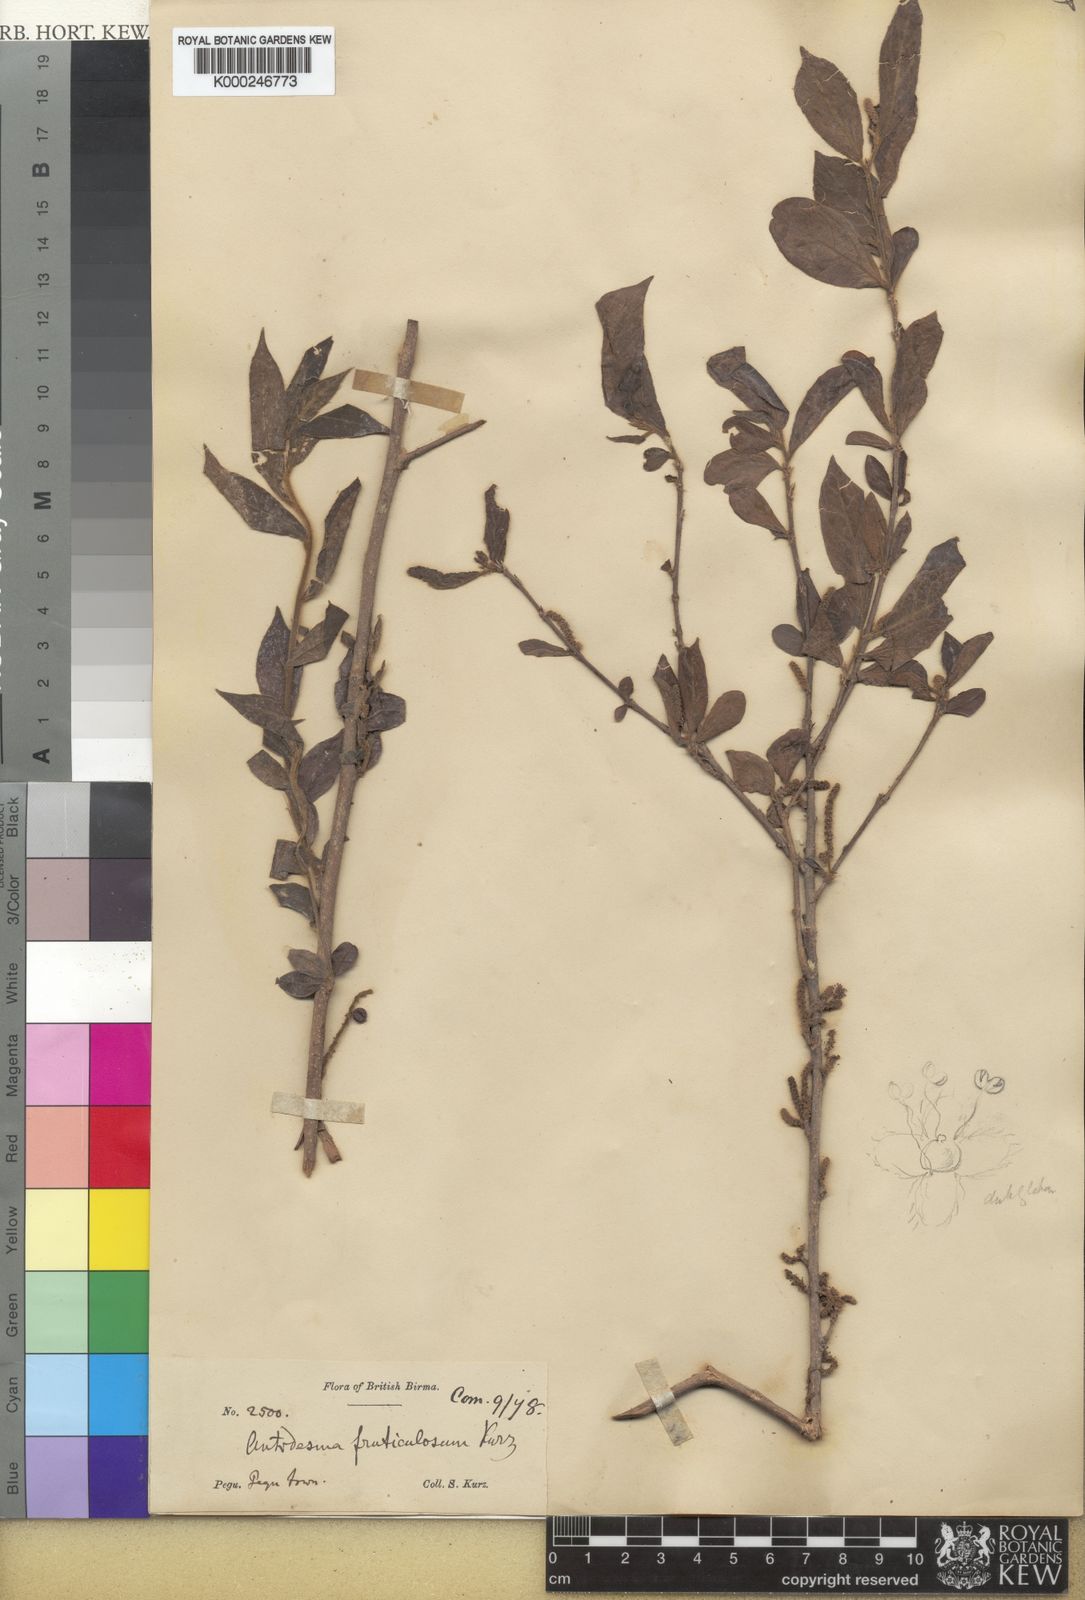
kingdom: Plantae
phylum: Tracheophyta
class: Magnoliopsida
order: Malpighiales
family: Phyllanthaceae
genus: Antidesma
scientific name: Antidesma
